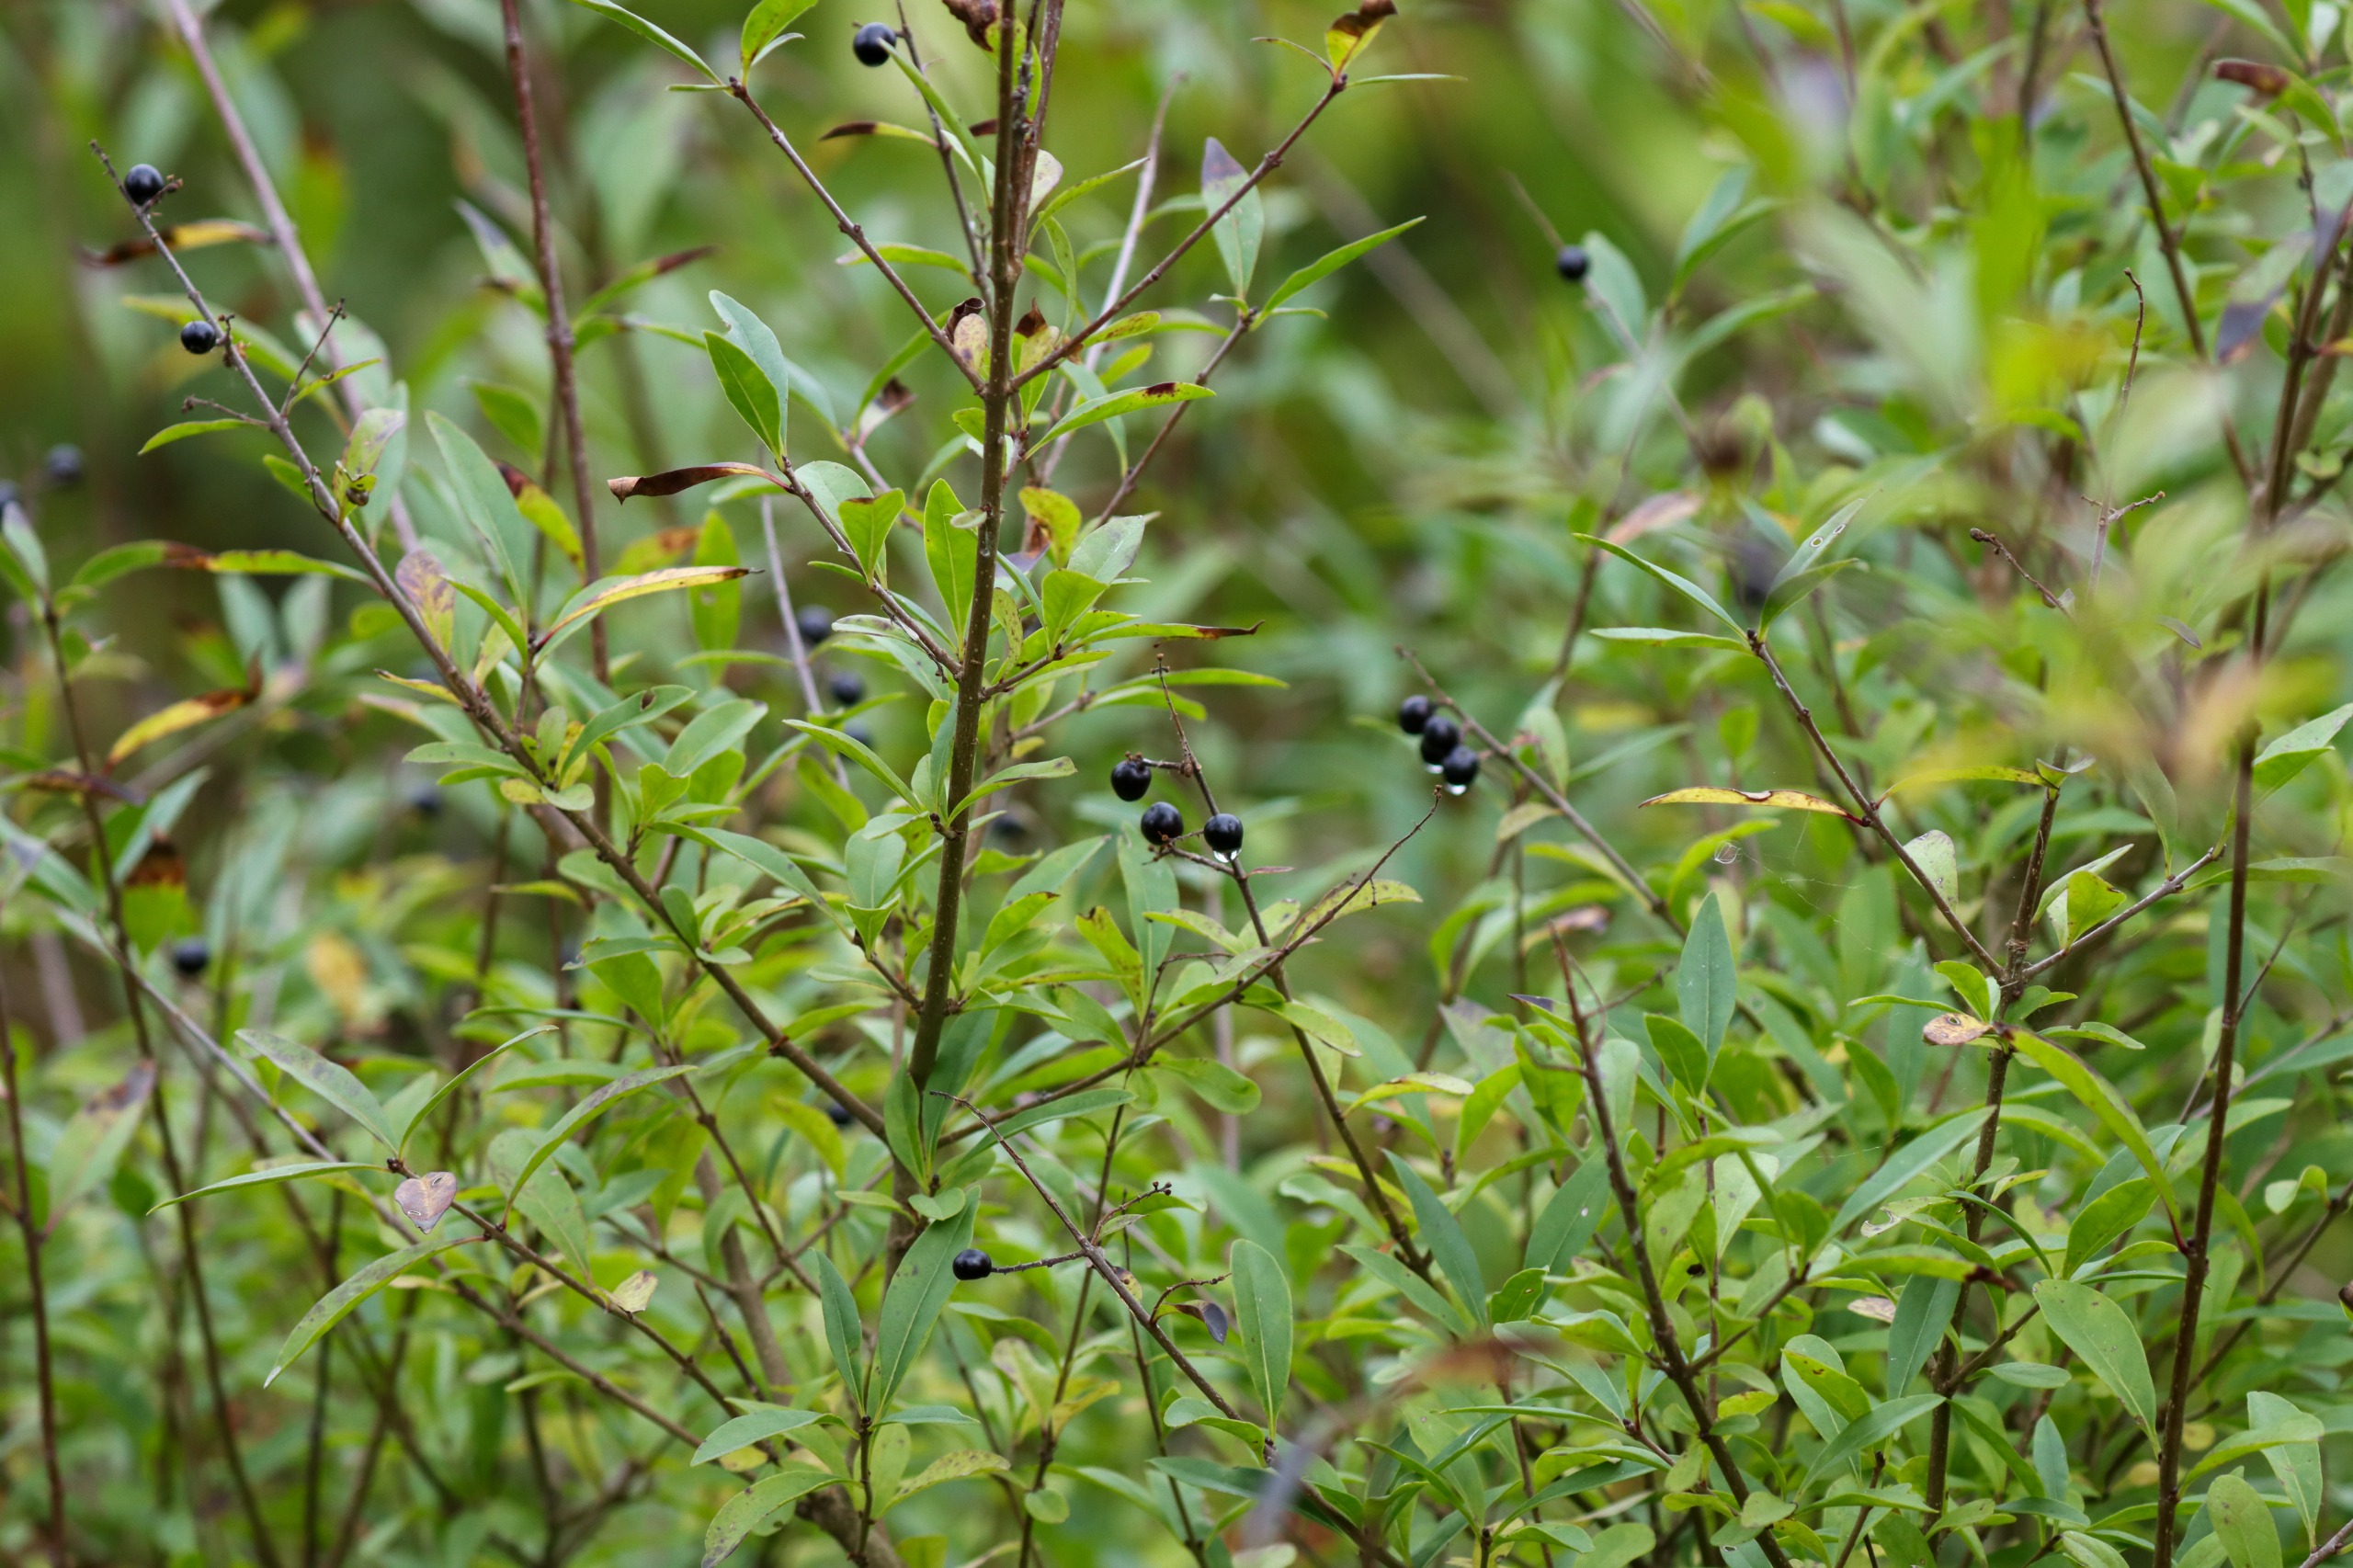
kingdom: Plantae
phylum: Tracheophyta
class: Magnoliopsida
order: Lamiales
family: Oleaceae
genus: Ligustrum
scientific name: Ligustrum vulgare
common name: Liguster
